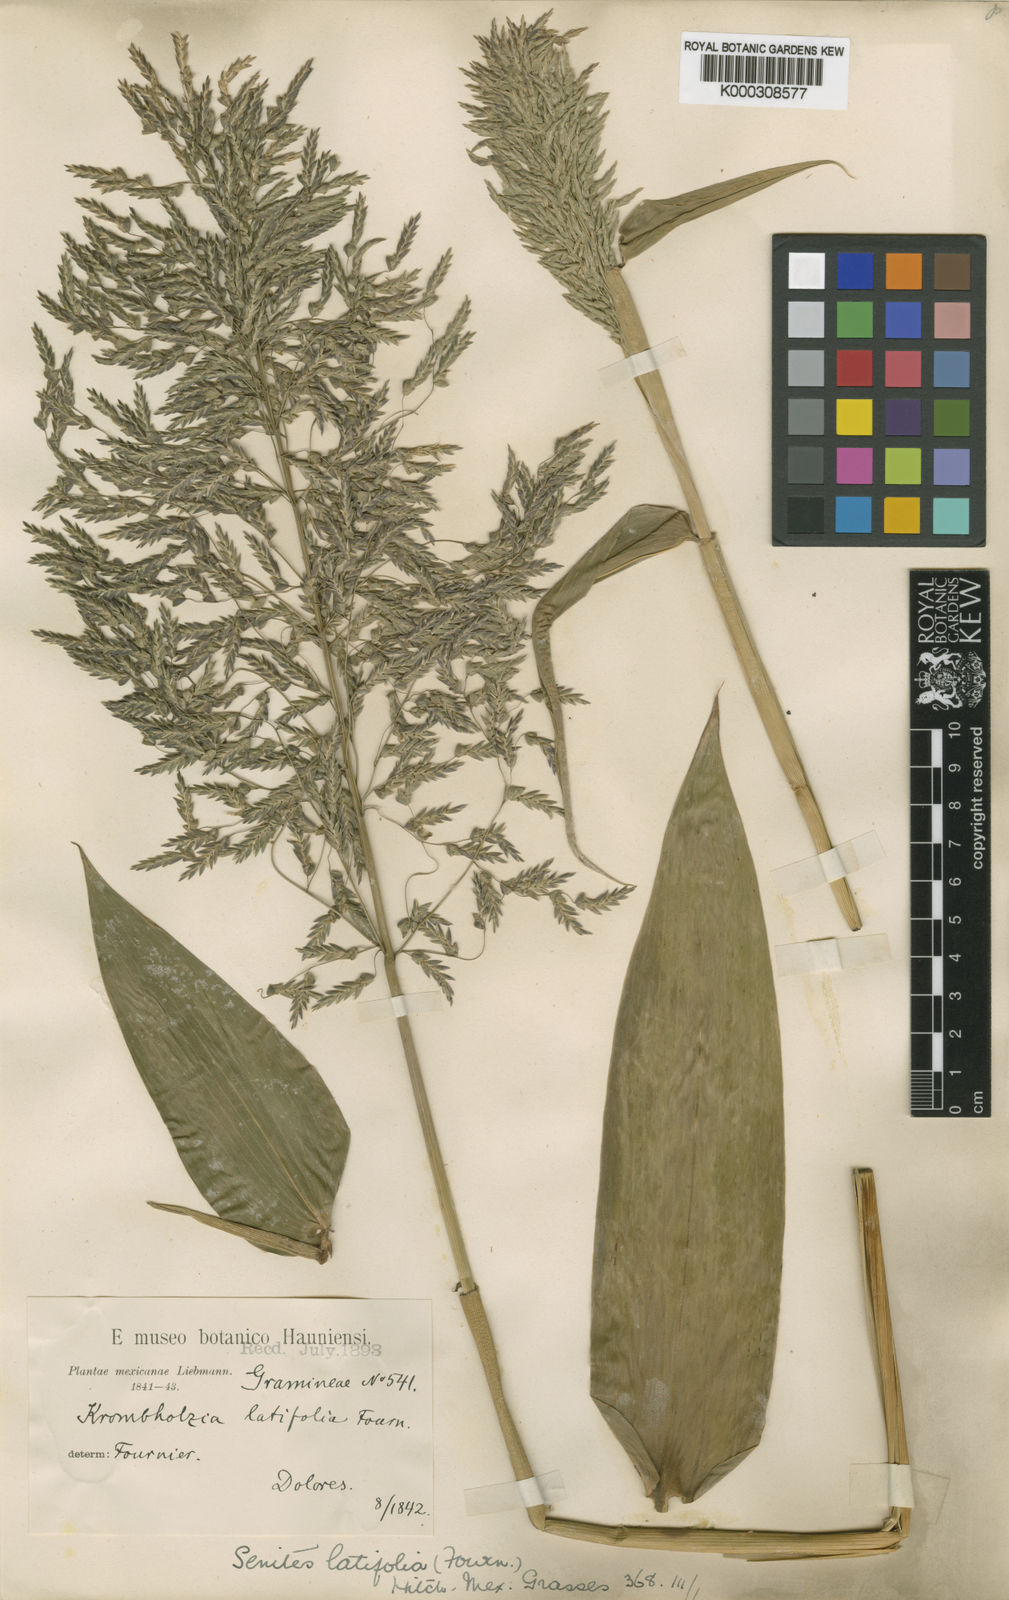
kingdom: Plantae
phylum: Tracheophyta
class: Liliopsida
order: Poales
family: Poaceae
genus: Zeugites
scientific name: Zeugites latifolius
